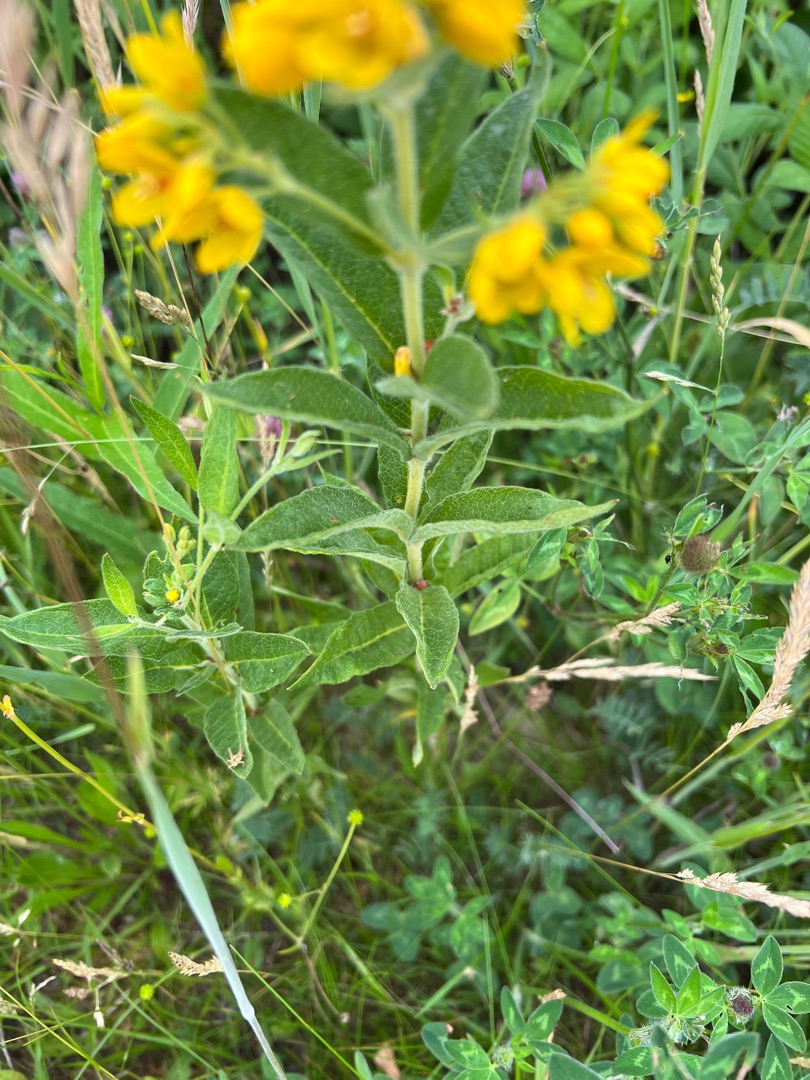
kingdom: Plantae
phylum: Tracheophyta
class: Magnoliopsida
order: Ericales
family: Primulaceae
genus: Lysimachia
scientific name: Lysimachia vulgaris
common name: Almindelig fredløs
